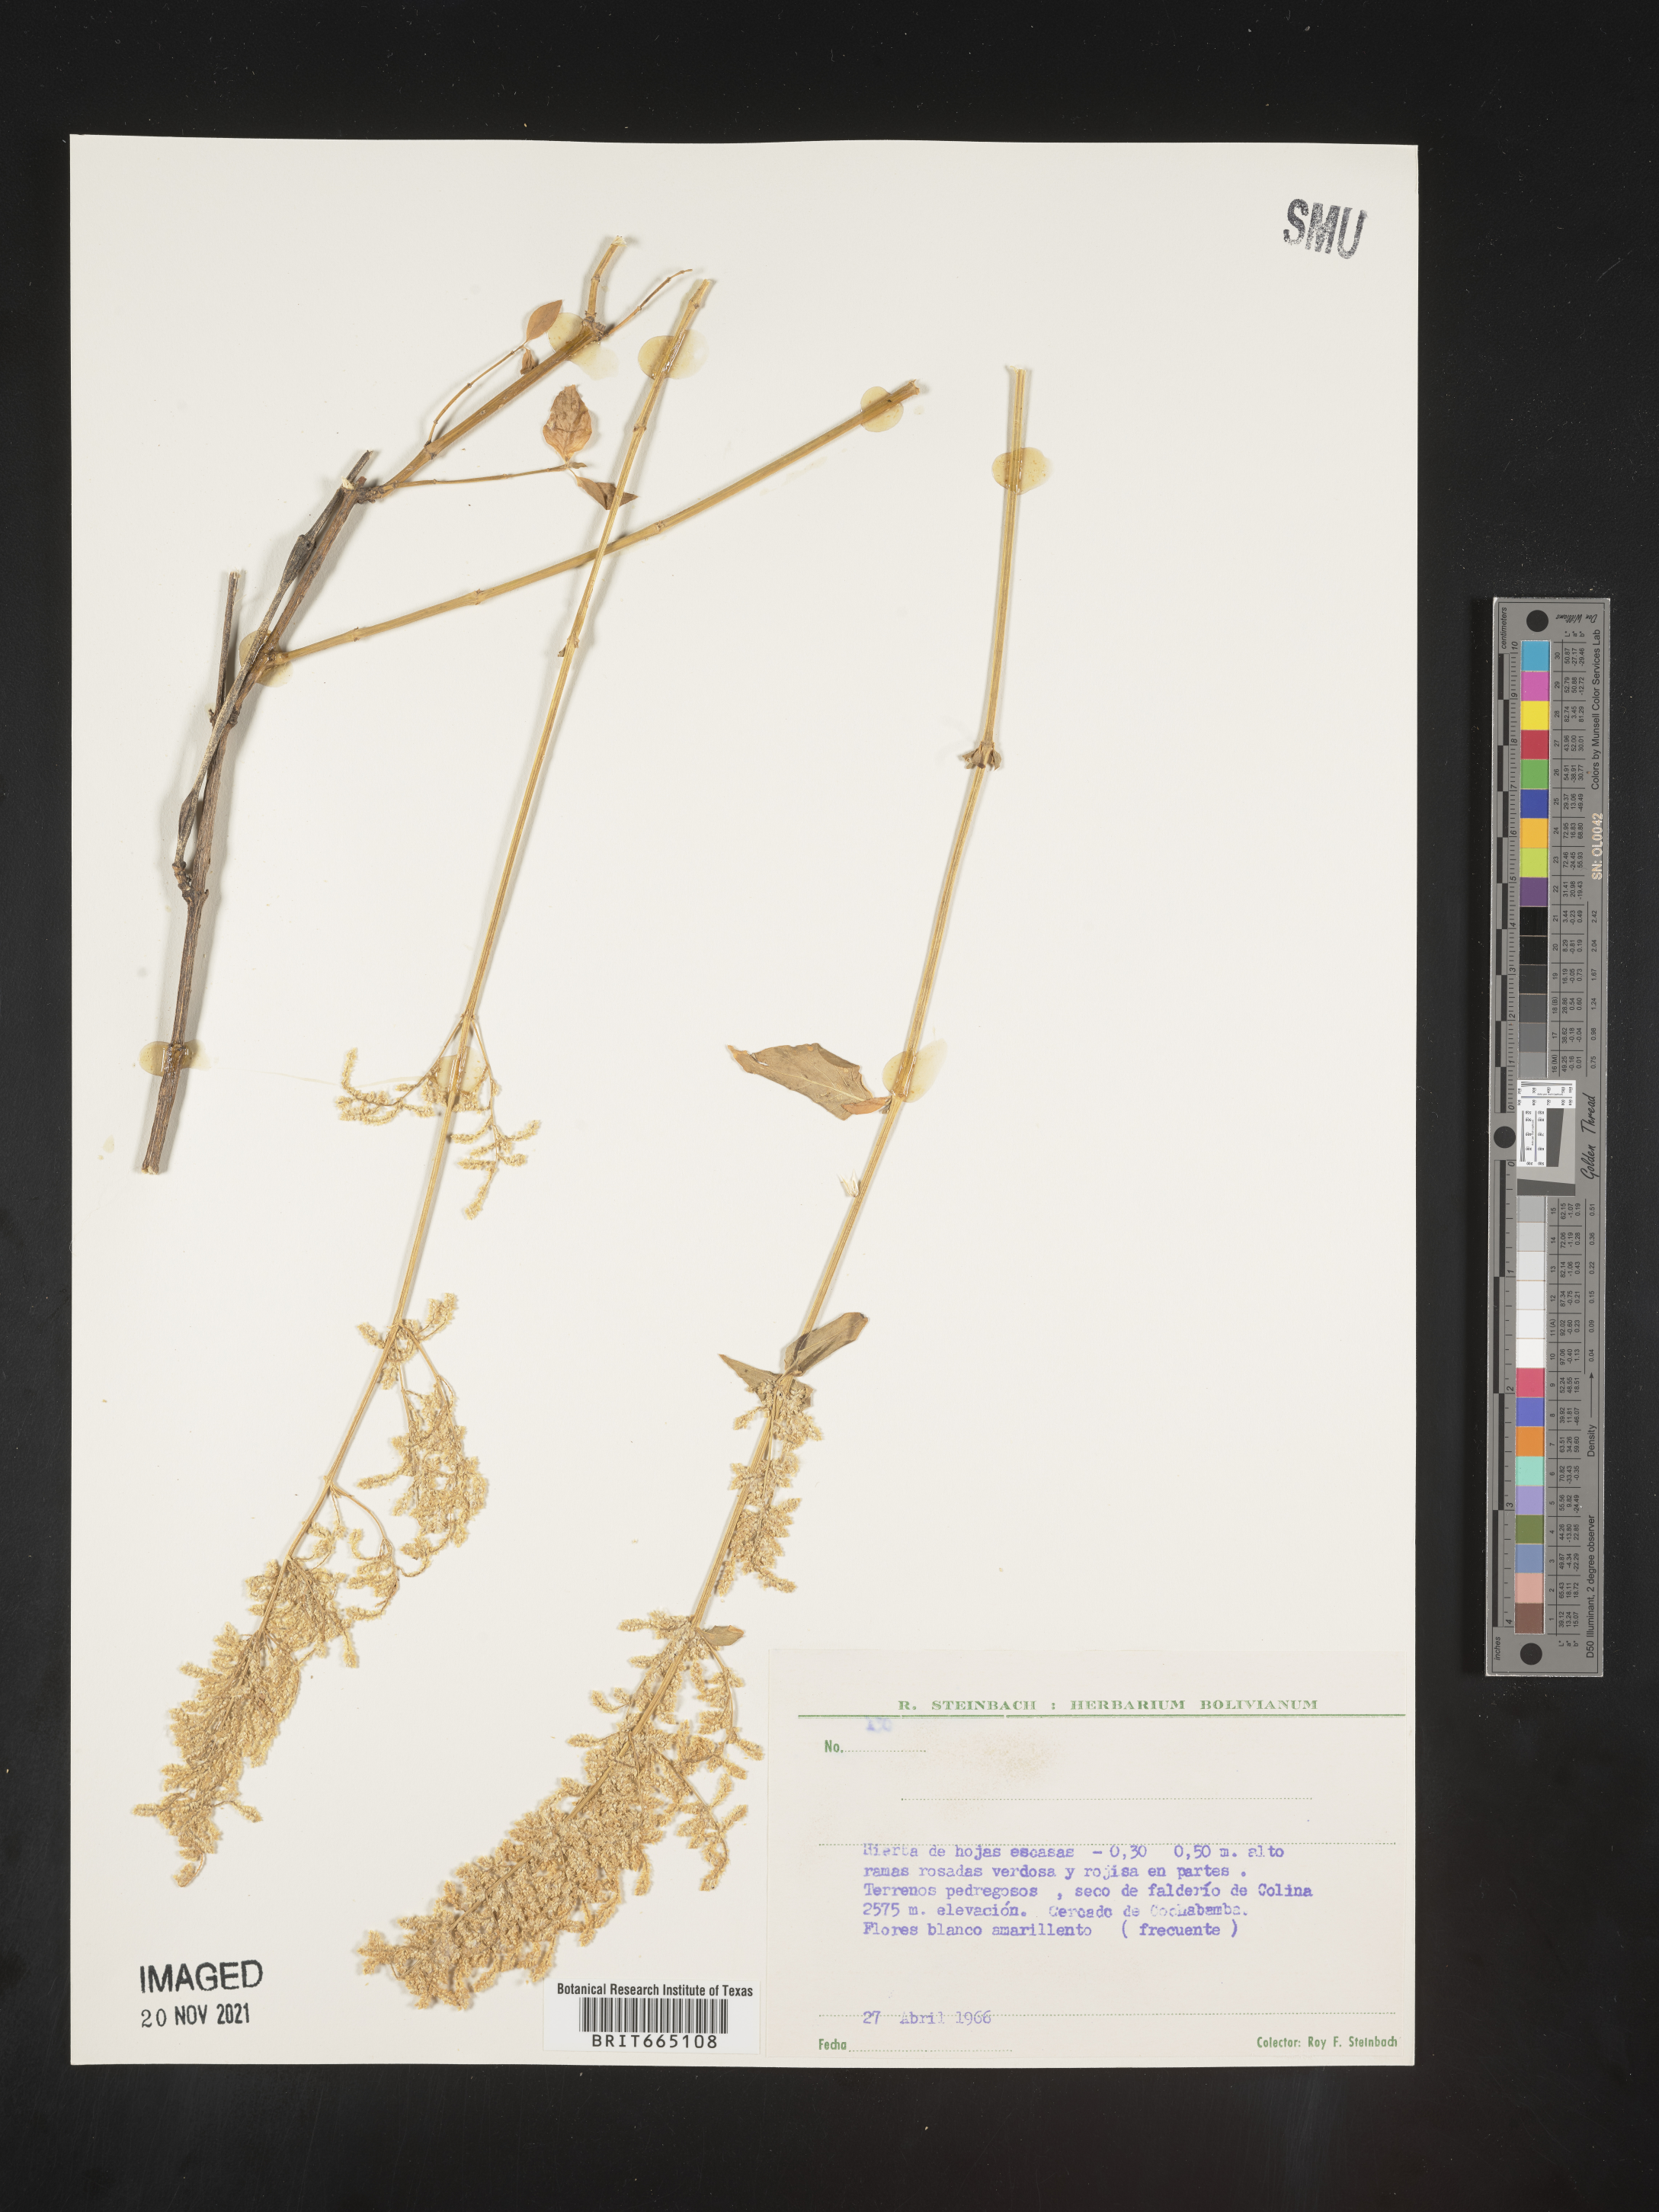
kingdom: Plantae
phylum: Tracheophyta
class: Magnoliopsida
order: Caryophyllales
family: Amaranthaceae
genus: Iresine
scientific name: Iresine
